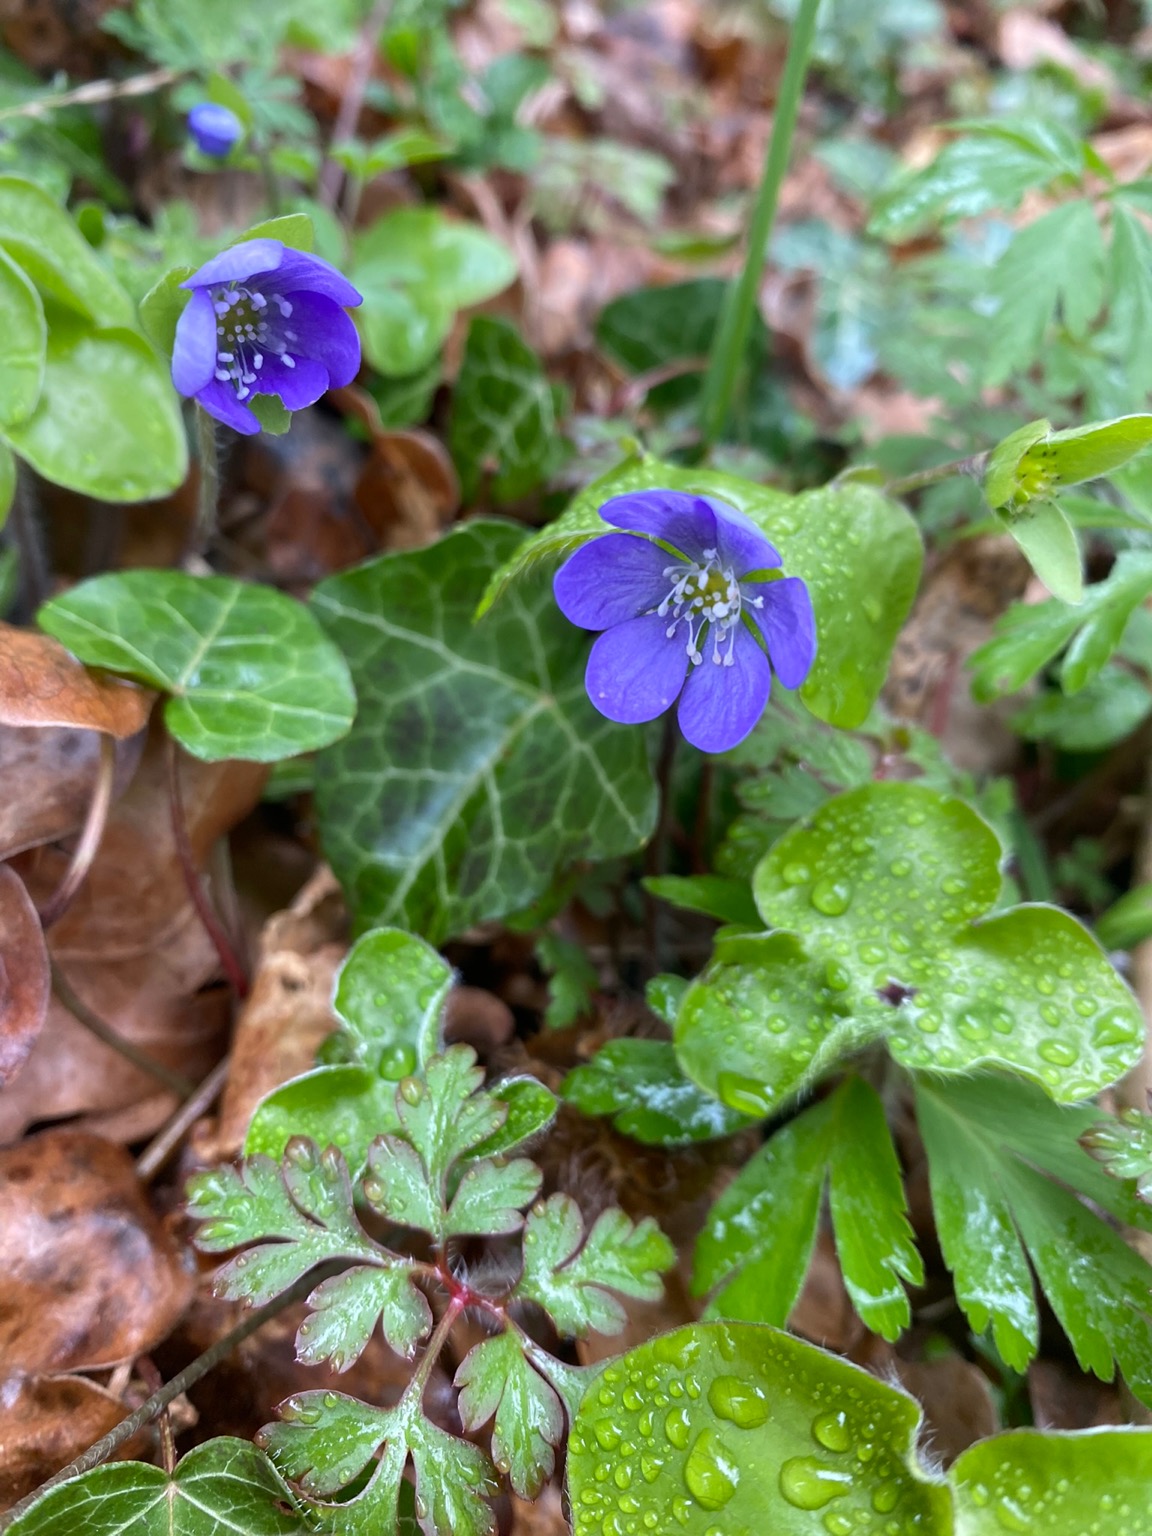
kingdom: Plantae
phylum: Tracheophyta
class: Magnoliopsida
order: Ranunculales
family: Ranunculaceae
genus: Hepatica
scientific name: Hepatica nobilis
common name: Blå anemone
